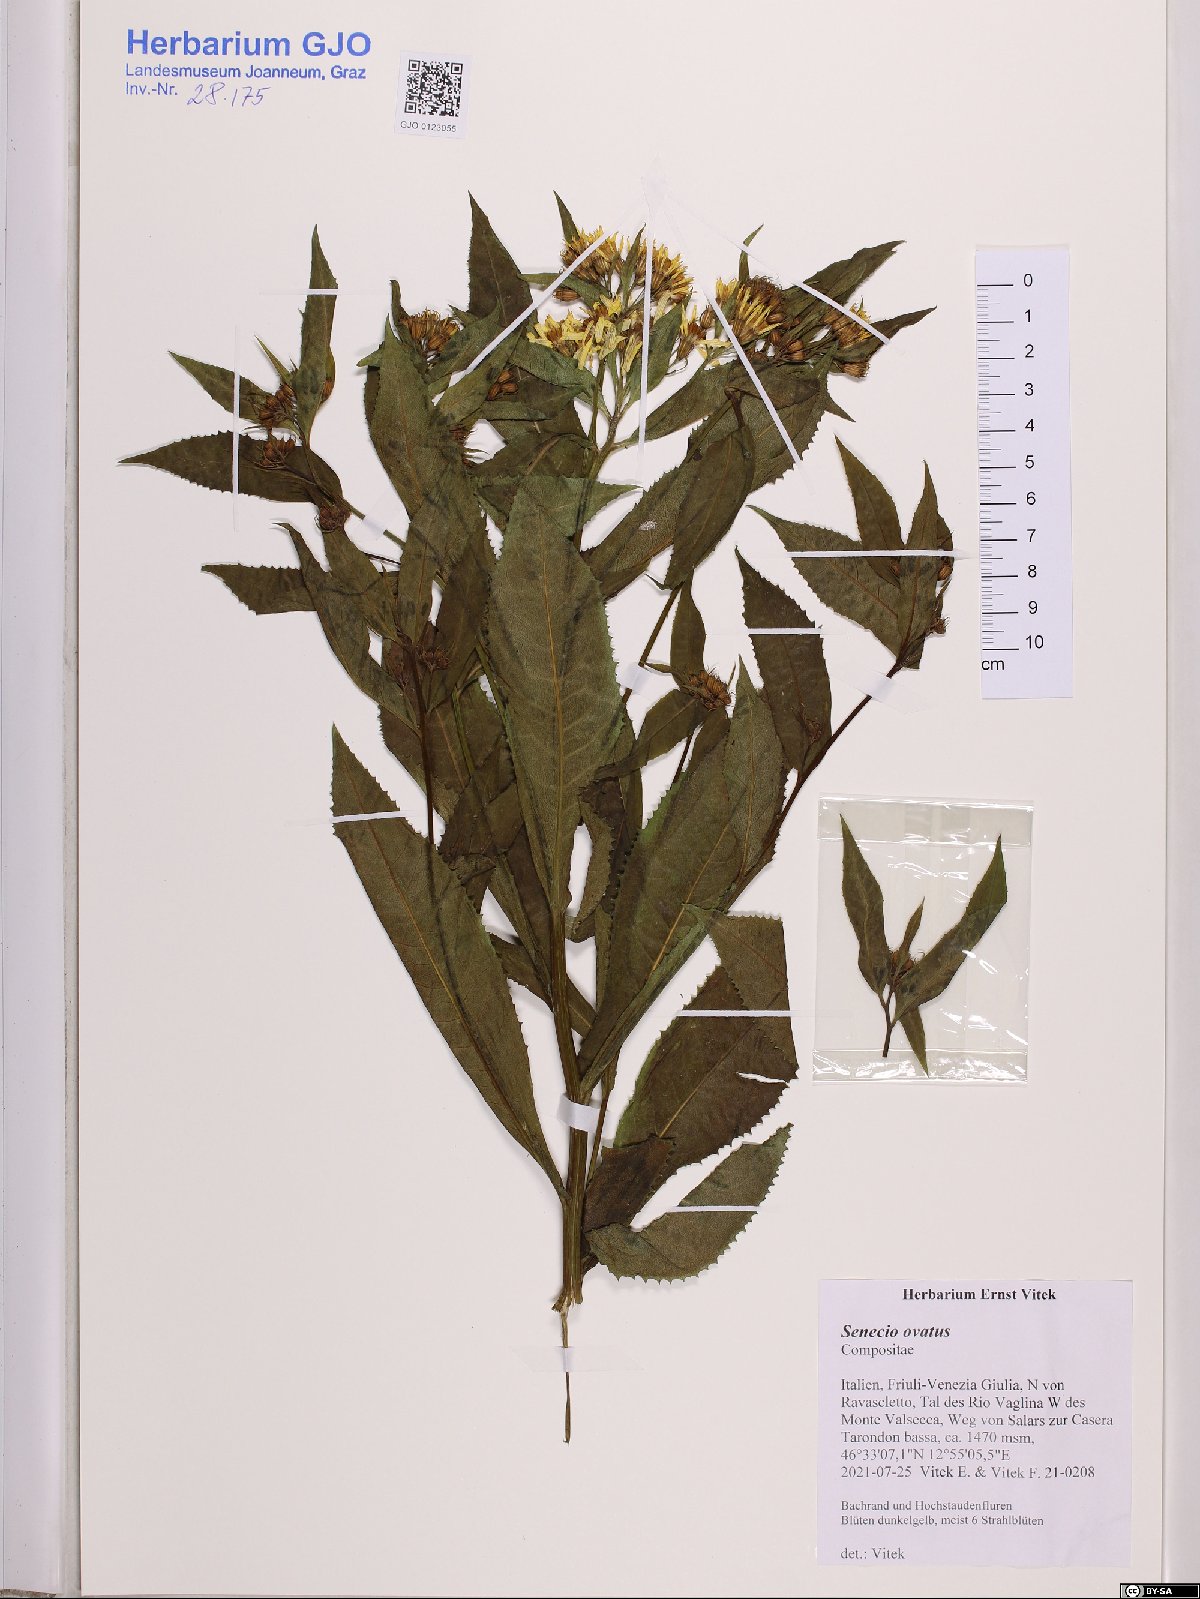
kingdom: Plantae
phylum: Tracheophyta
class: Magnoliopsida
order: Asterales
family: Asteraceae
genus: Senecio
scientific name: Senecio ovatus
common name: Wood ragwort
